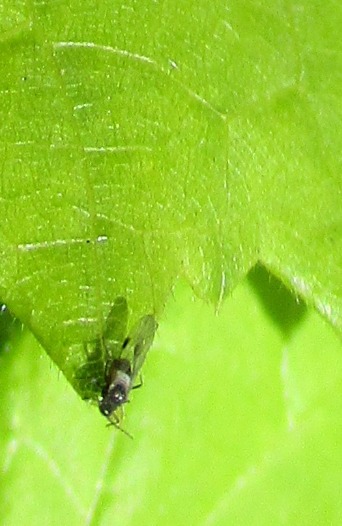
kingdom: Animalia
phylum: Arthropoda
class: Insecta
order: Hemiptera
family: Aphididae
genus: Anoecia
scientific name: Anoecia corni
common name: Kornelbladlus
